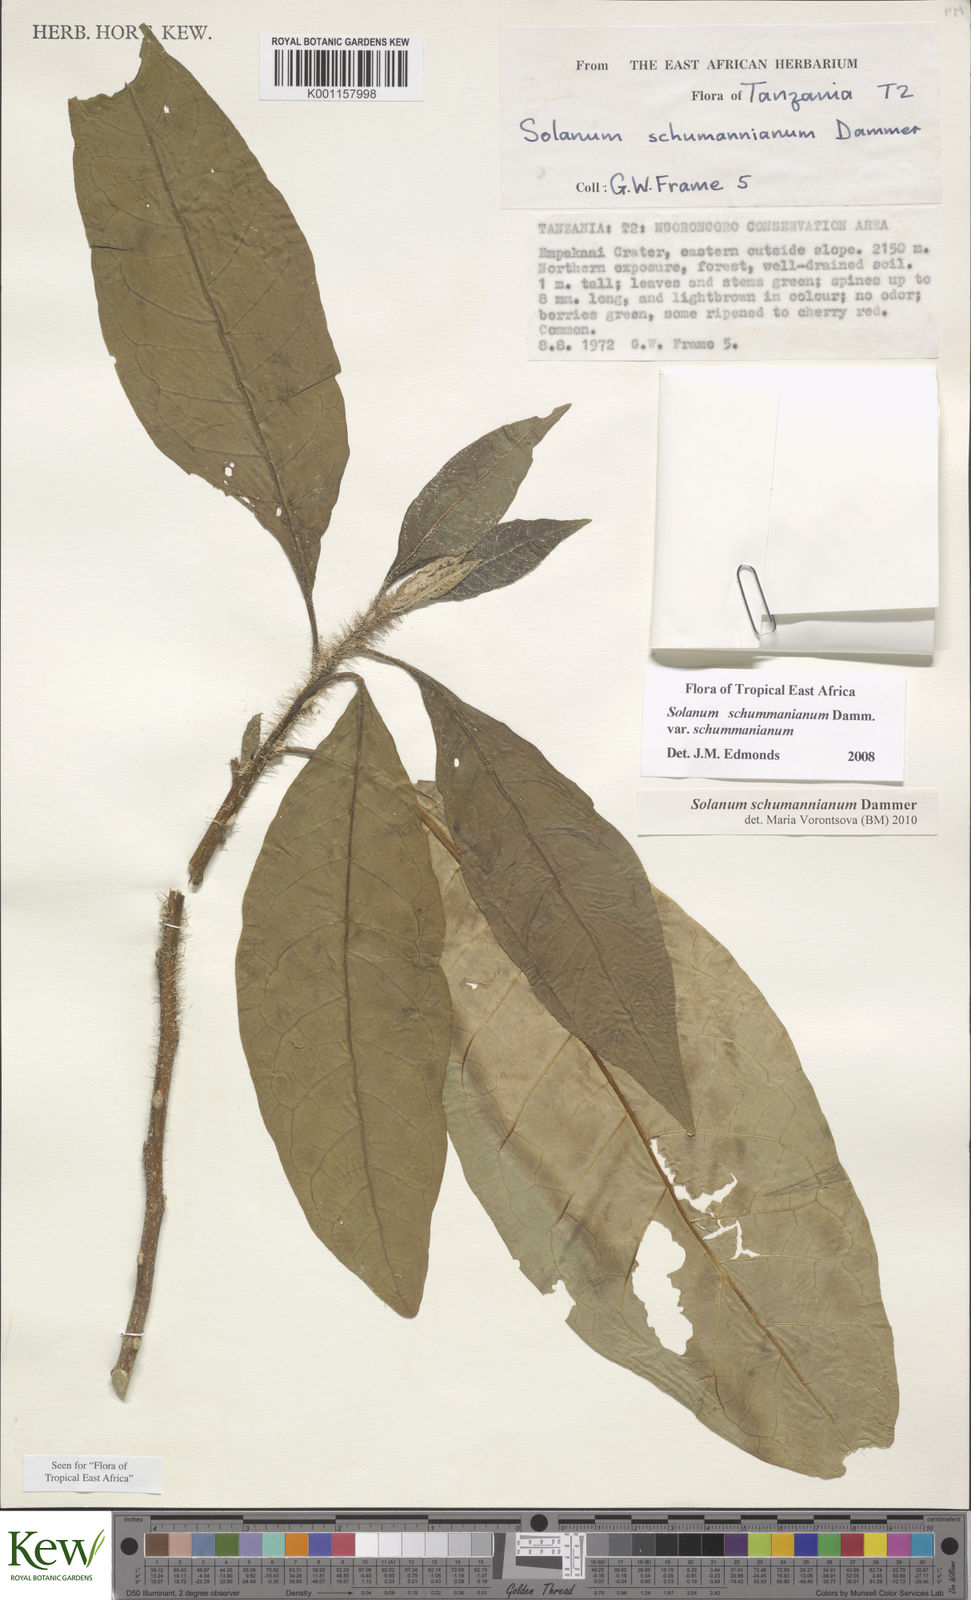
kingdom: Plantae
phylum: Tracheophyta
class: Magnoliopsida
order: Solanales
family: Solanaceae
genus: Solanum
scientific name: Solanum schumannianum
